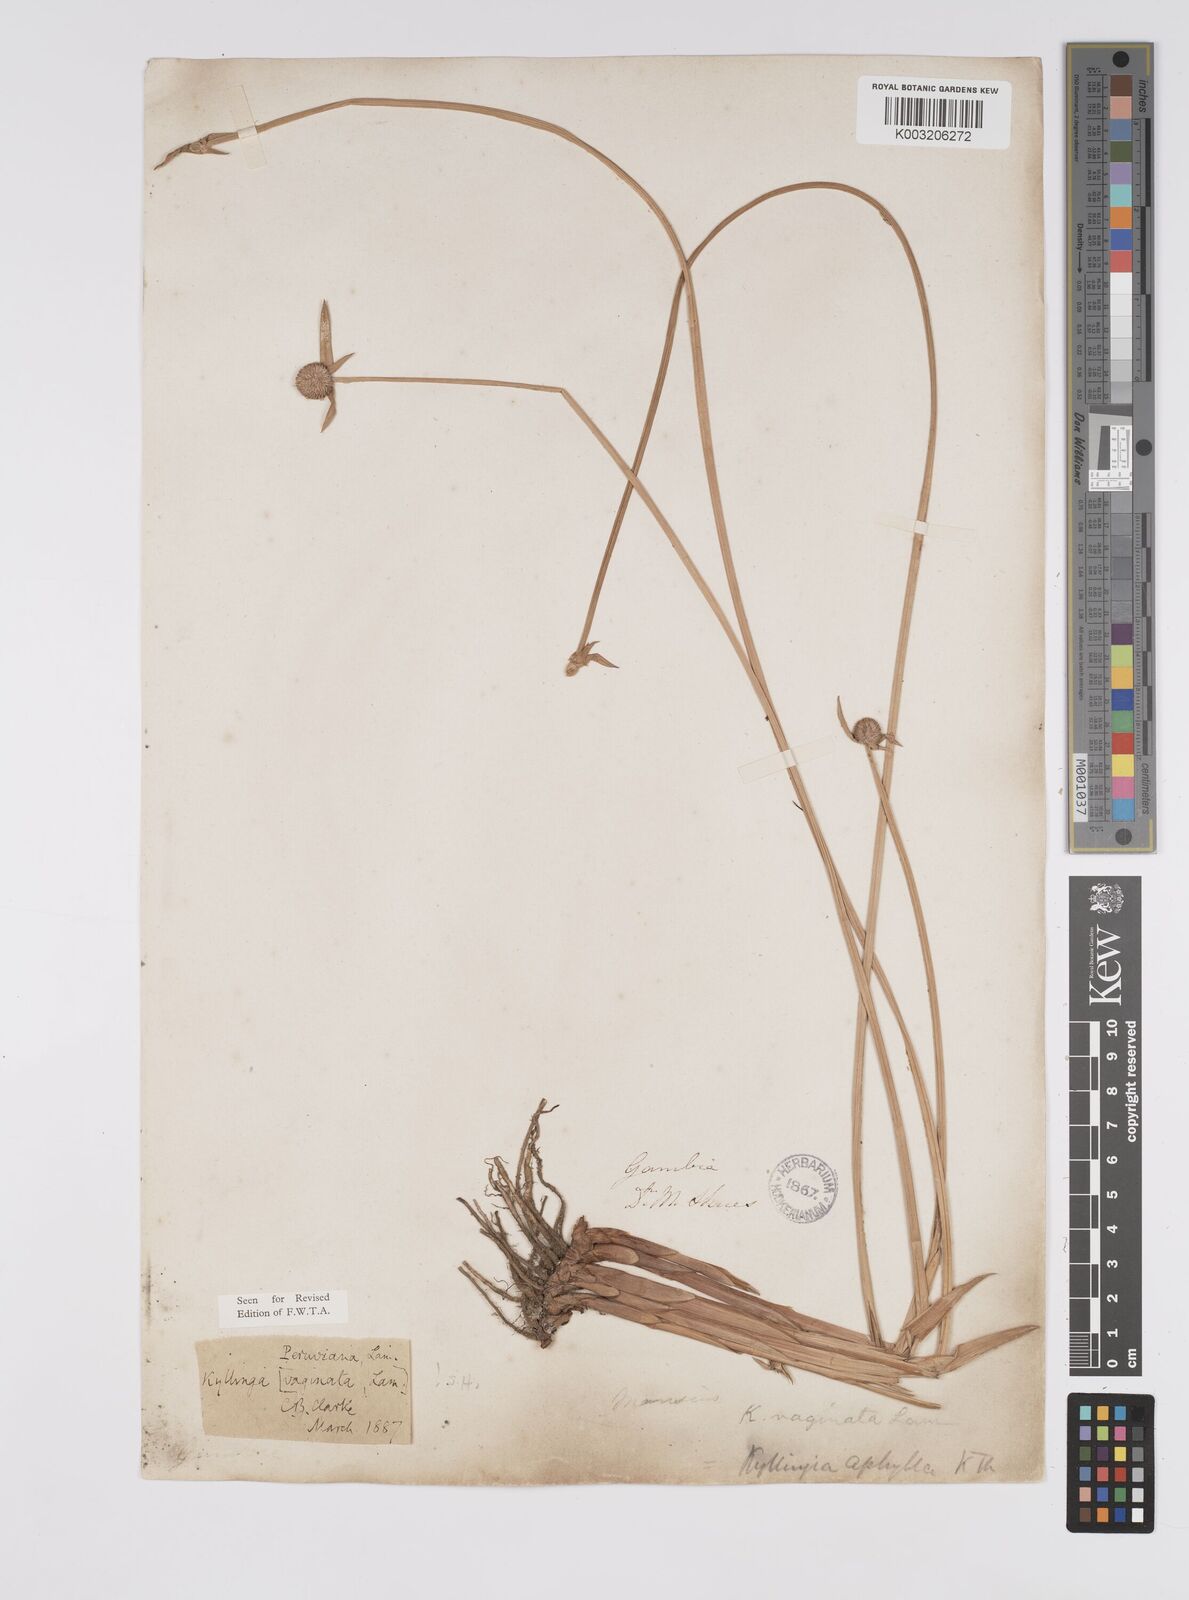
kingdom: Plantae
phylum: Tracheophyta
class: Liliopsida
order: Poales
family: Cyperaceae
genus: Cyperus
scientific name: Cyperus obtusatus
